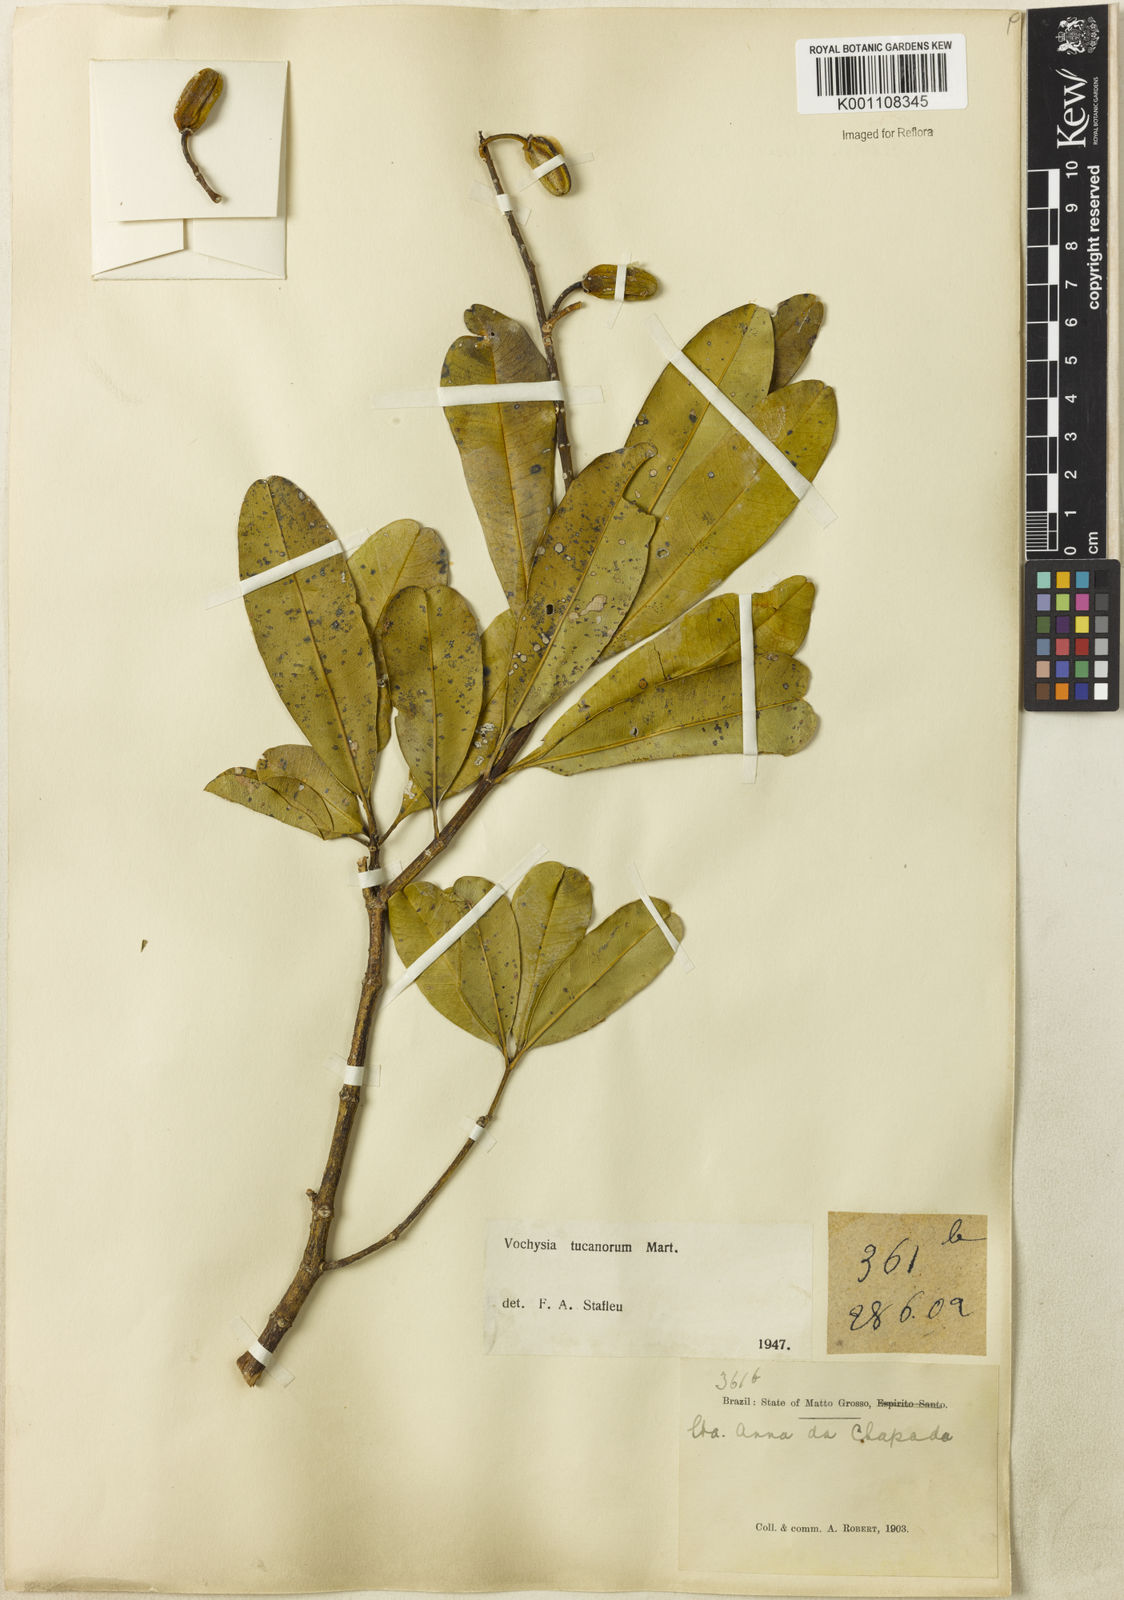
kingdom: Plantae
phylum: Tracheophyta
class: Magnoliopsida
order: Myrtales
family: Vochysiaceae
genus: Vochysia
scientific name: Vochysia tucanorum
